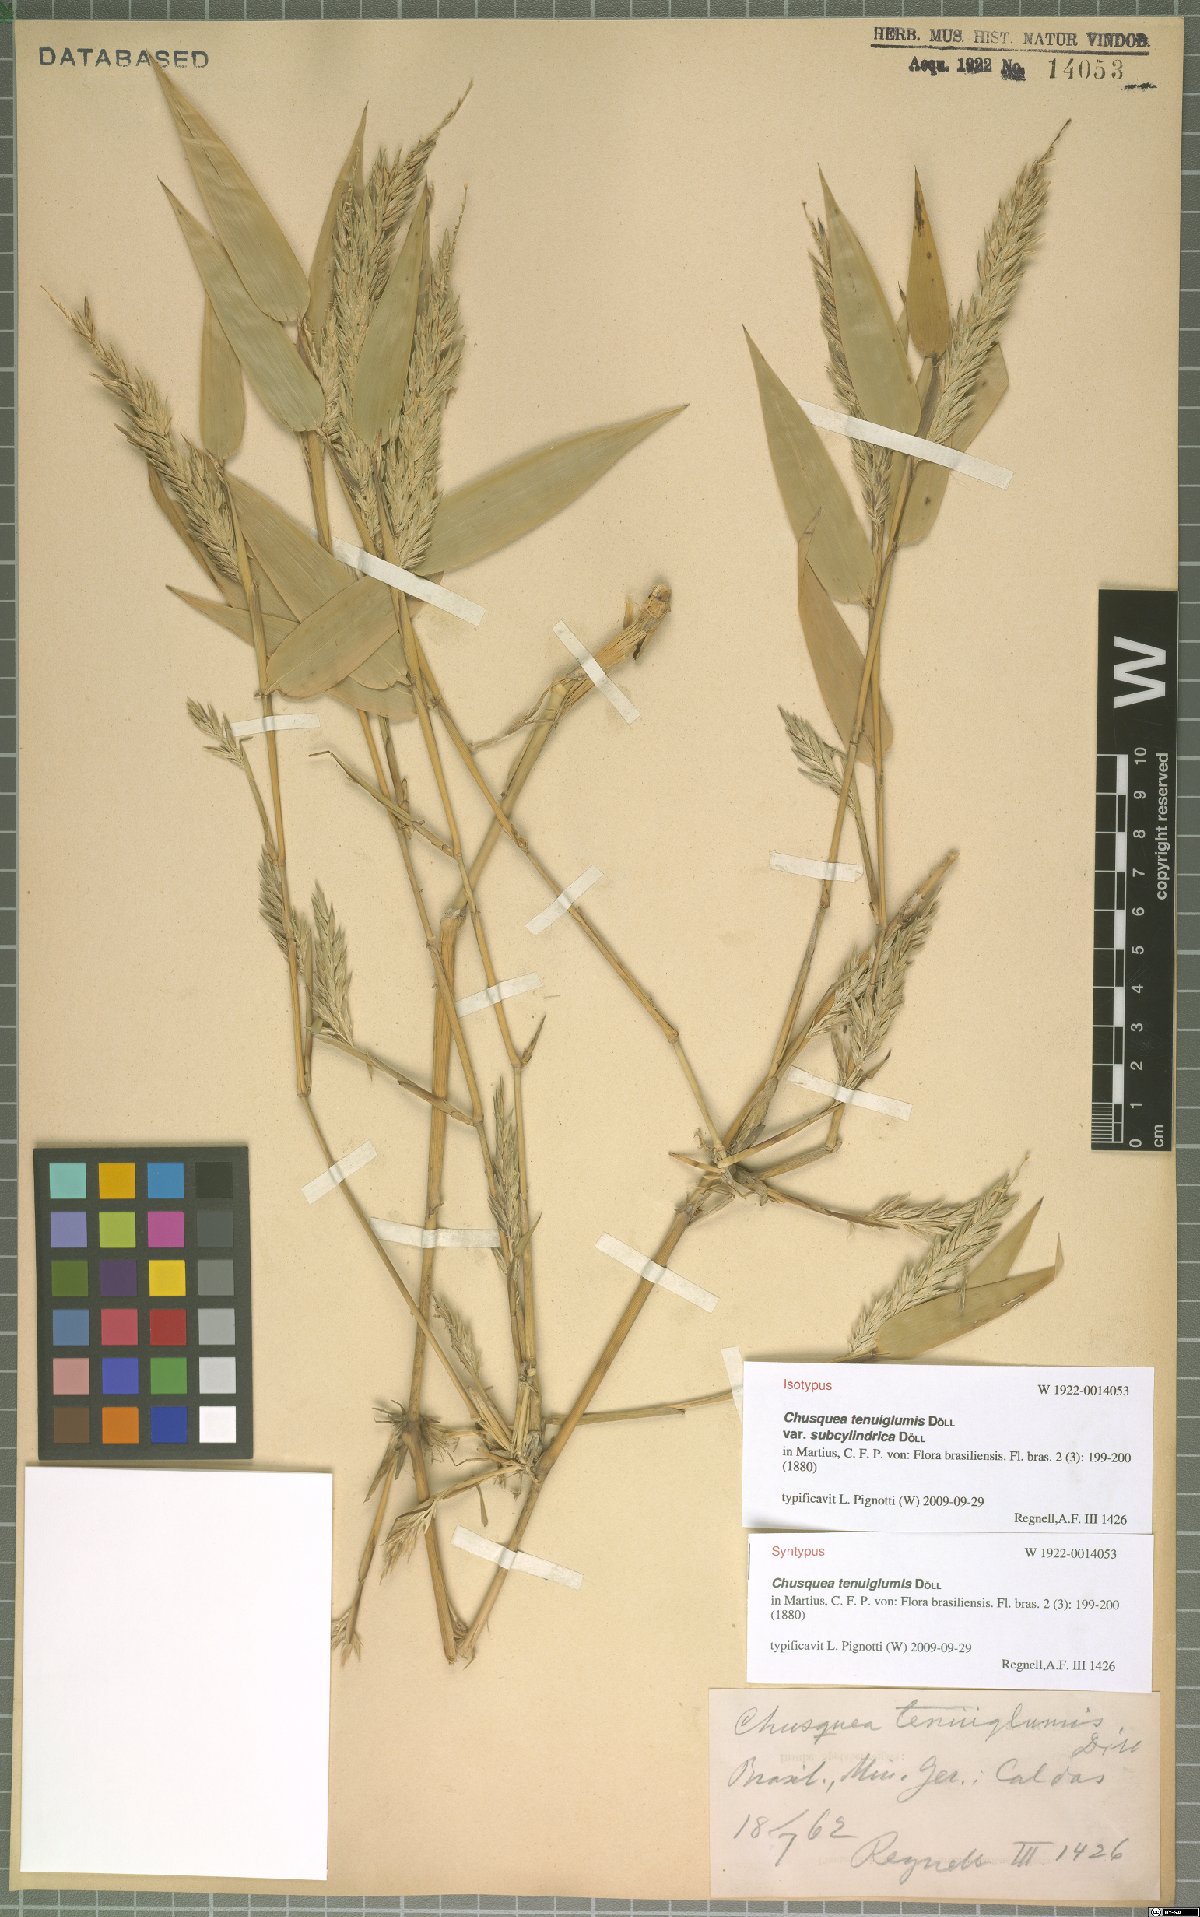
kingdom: Plantae
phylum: Tracheophyta
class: Liliopsida
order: Poales
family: Poaceae
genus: Chusquea
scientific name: Chusquea tenuiglumis
